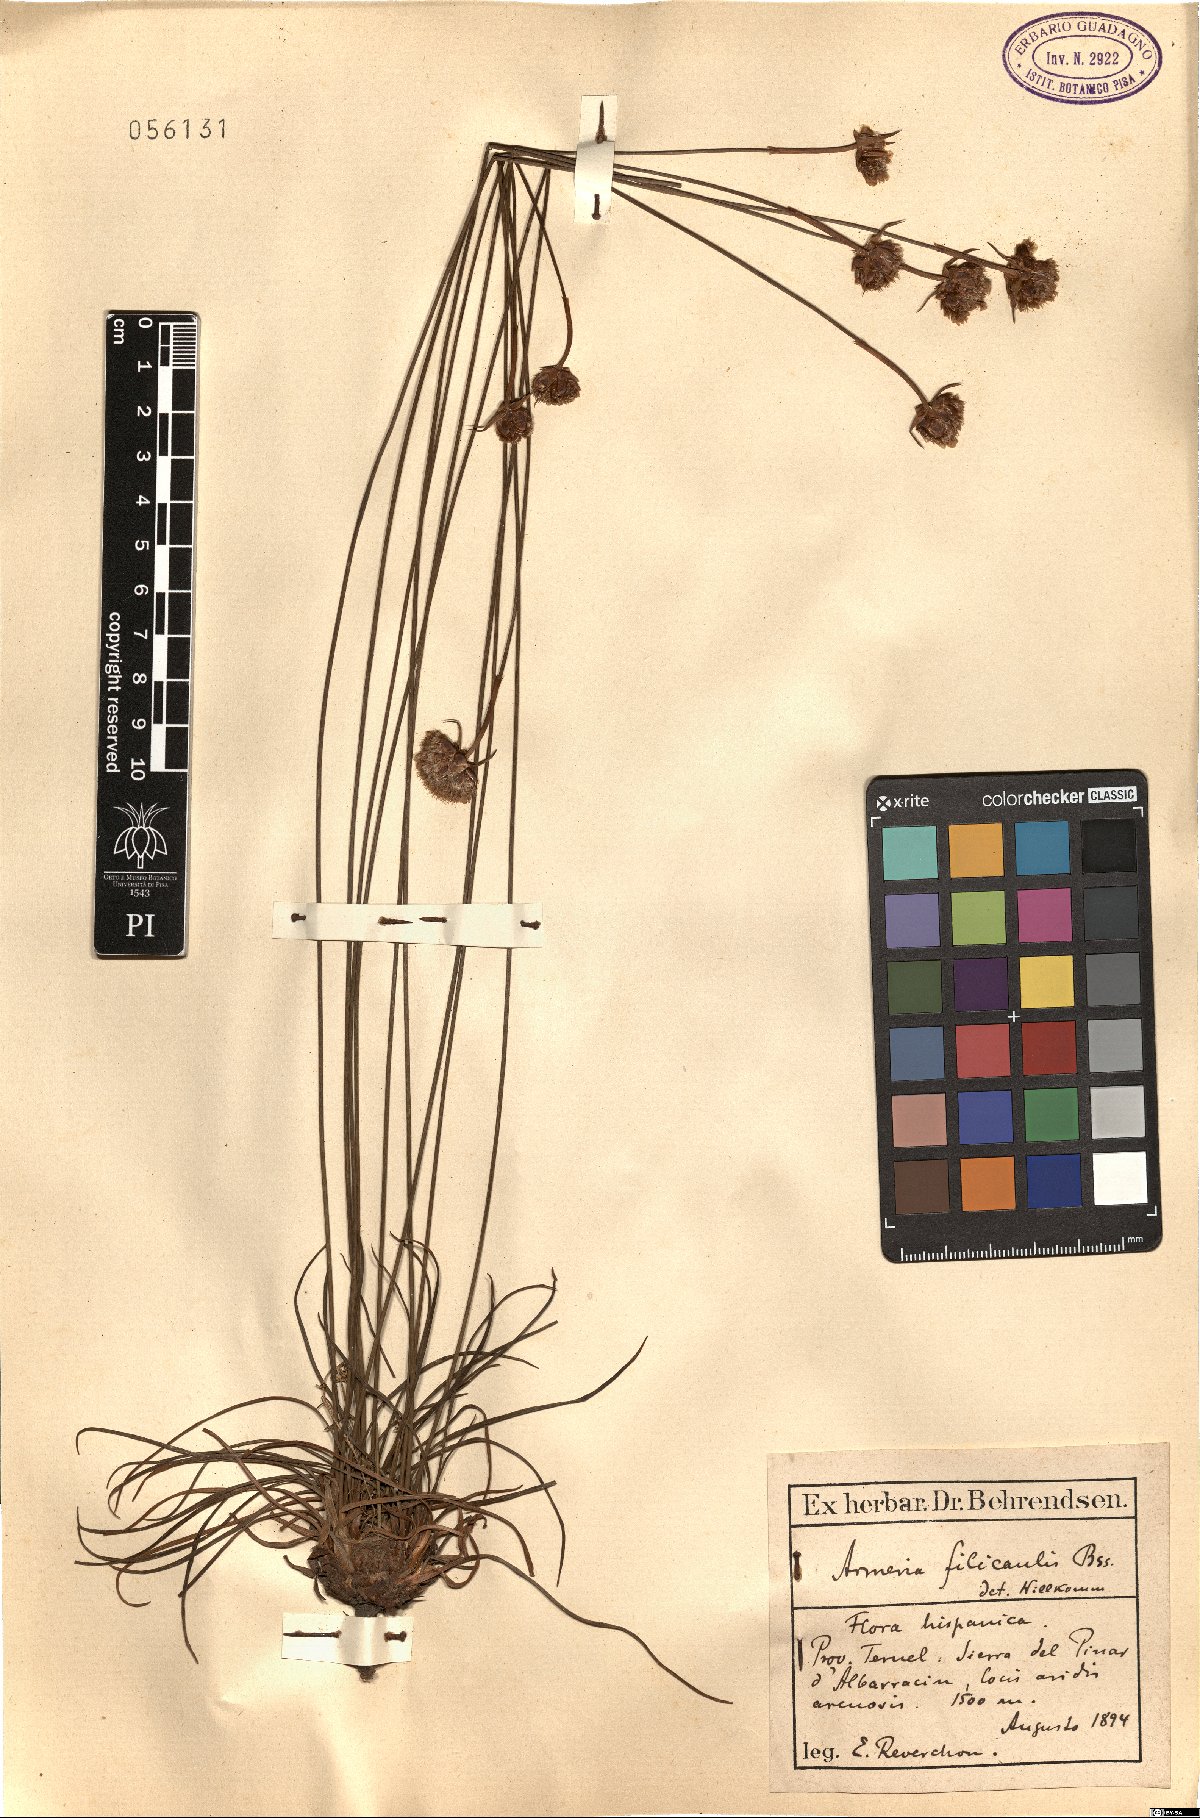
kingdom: Plantae
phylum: Tracheophyta
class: Magnoliopsida
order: Caryophyllales
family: Plumbaginaceae
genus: Armeria
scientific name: Armeria filicaulis
